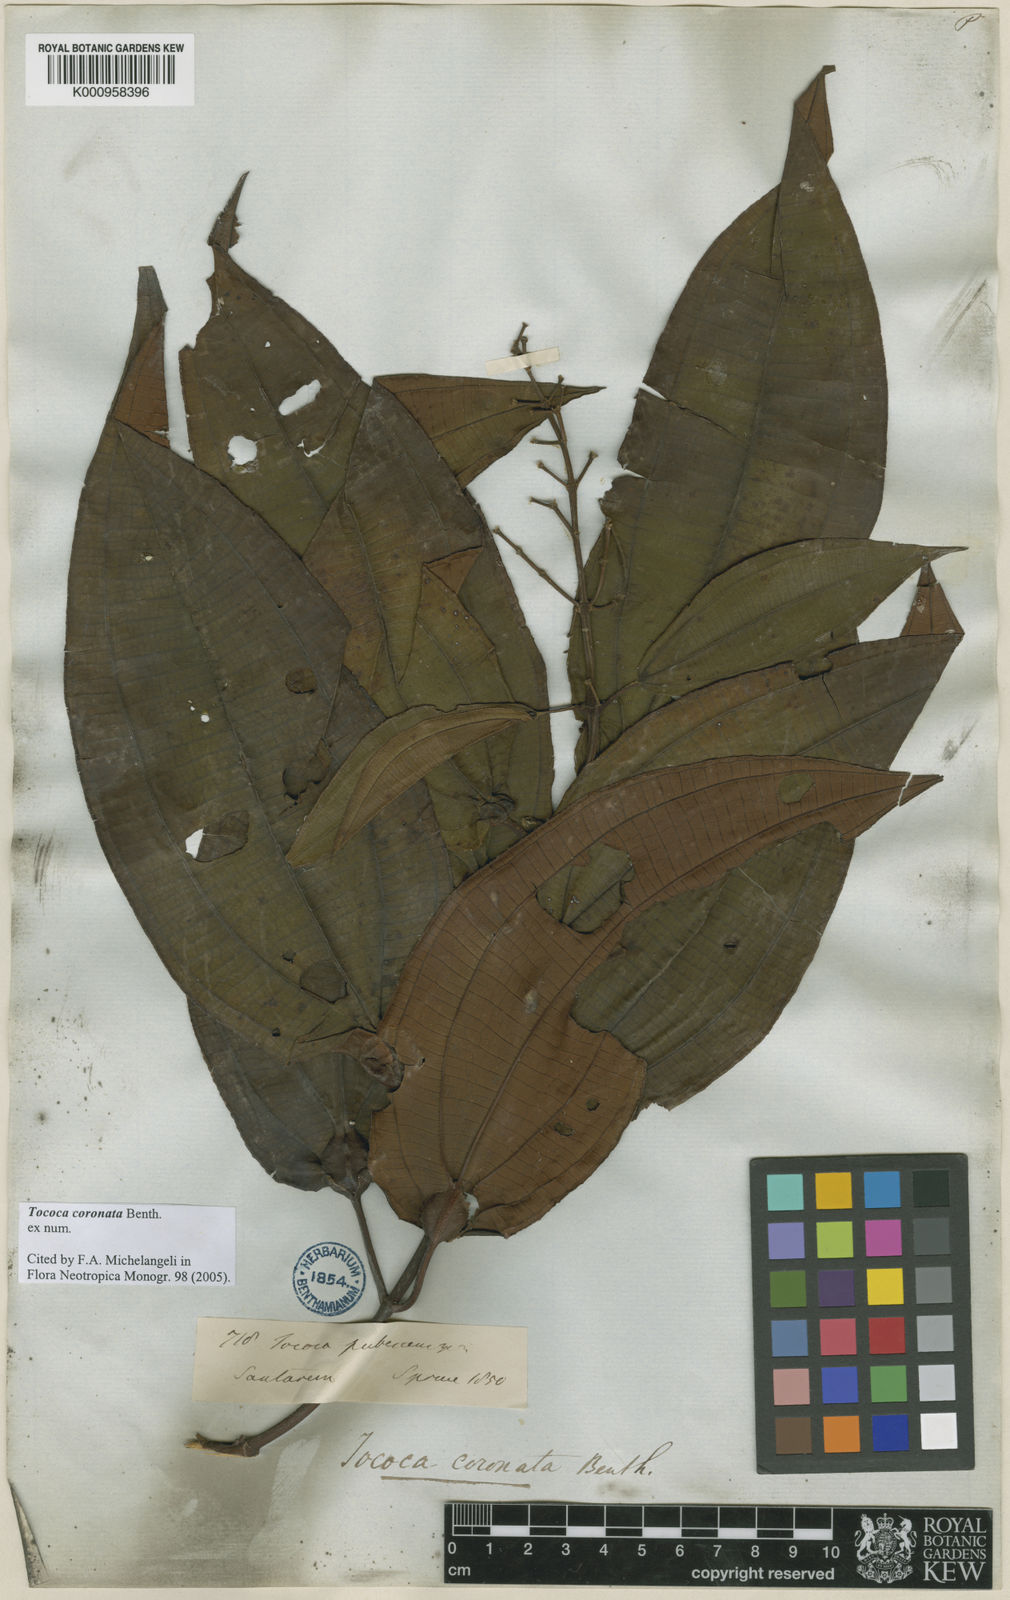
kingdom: Plantae
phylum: Tracheophyta
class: Magnoliopsida
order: Myrtales
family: Melastomataceae
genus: Miconia
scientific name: Miconia tococoronata
